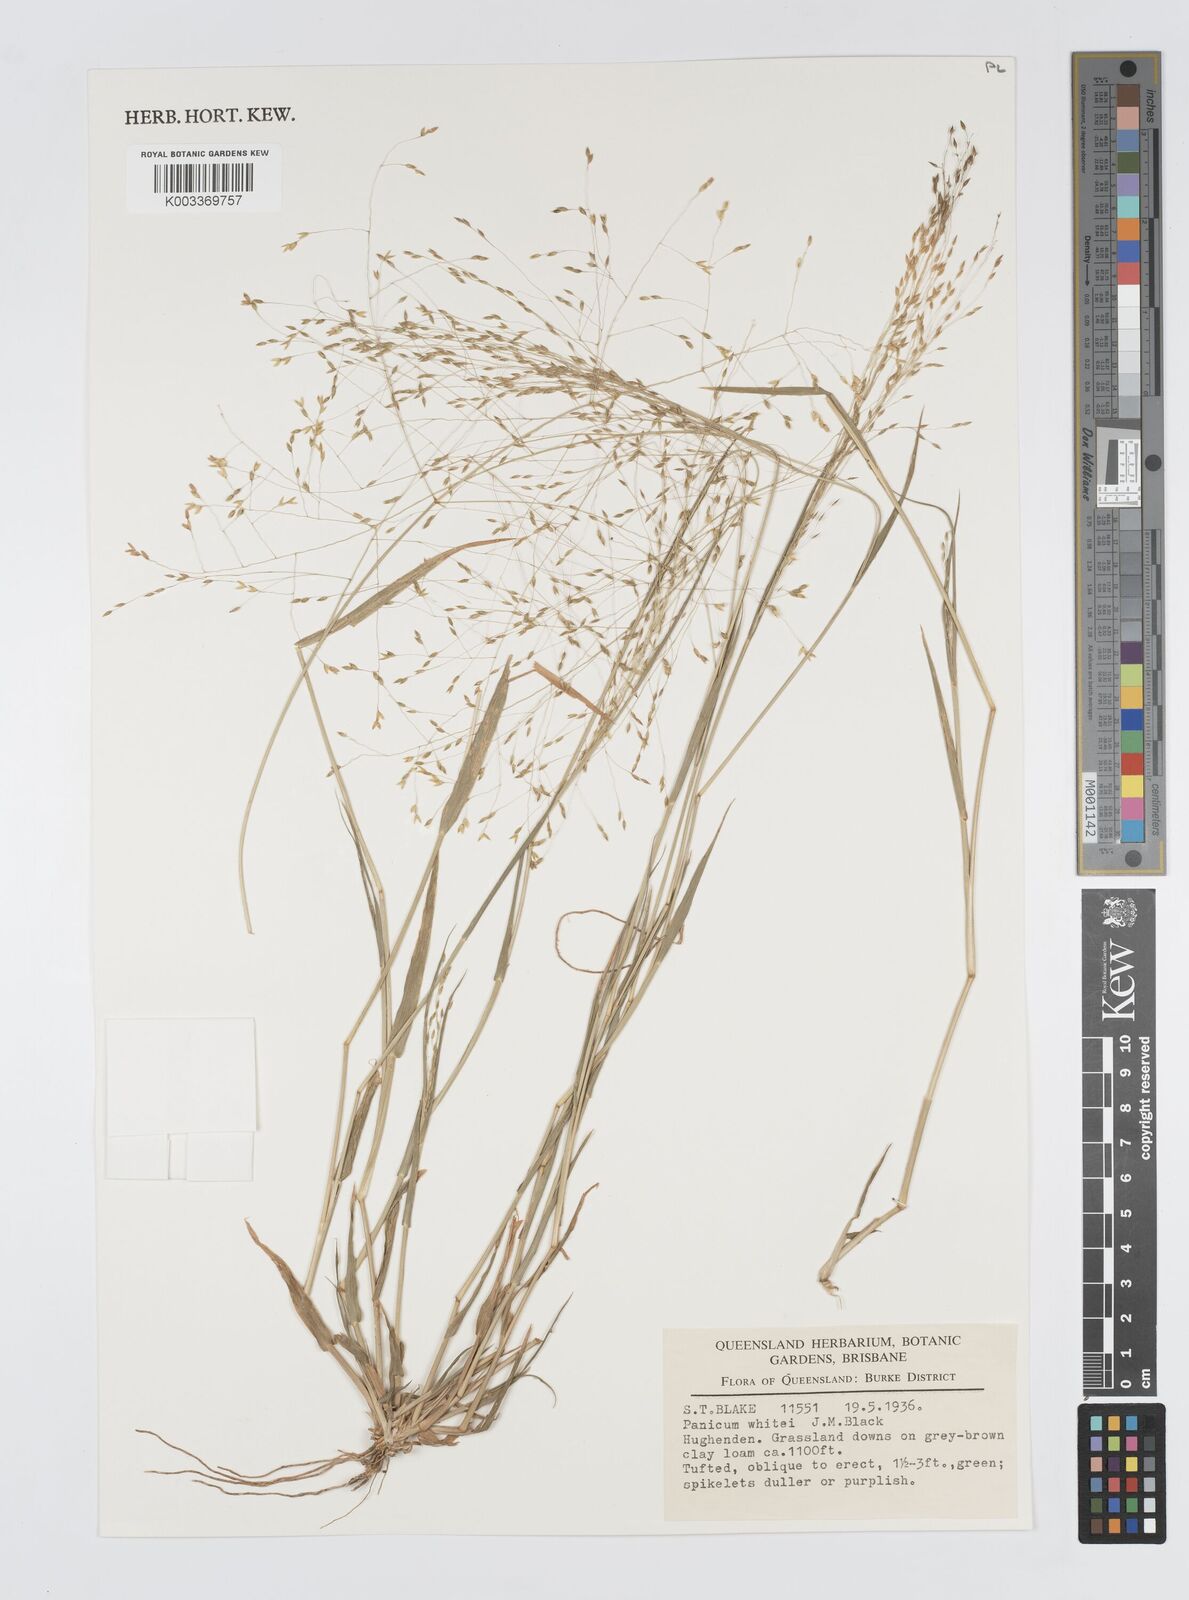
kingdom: Plantae
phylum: Tracheophyta
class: Liliopsida
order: Poales
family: Poaceae
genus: Panicum
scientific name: Panicum laevinode
